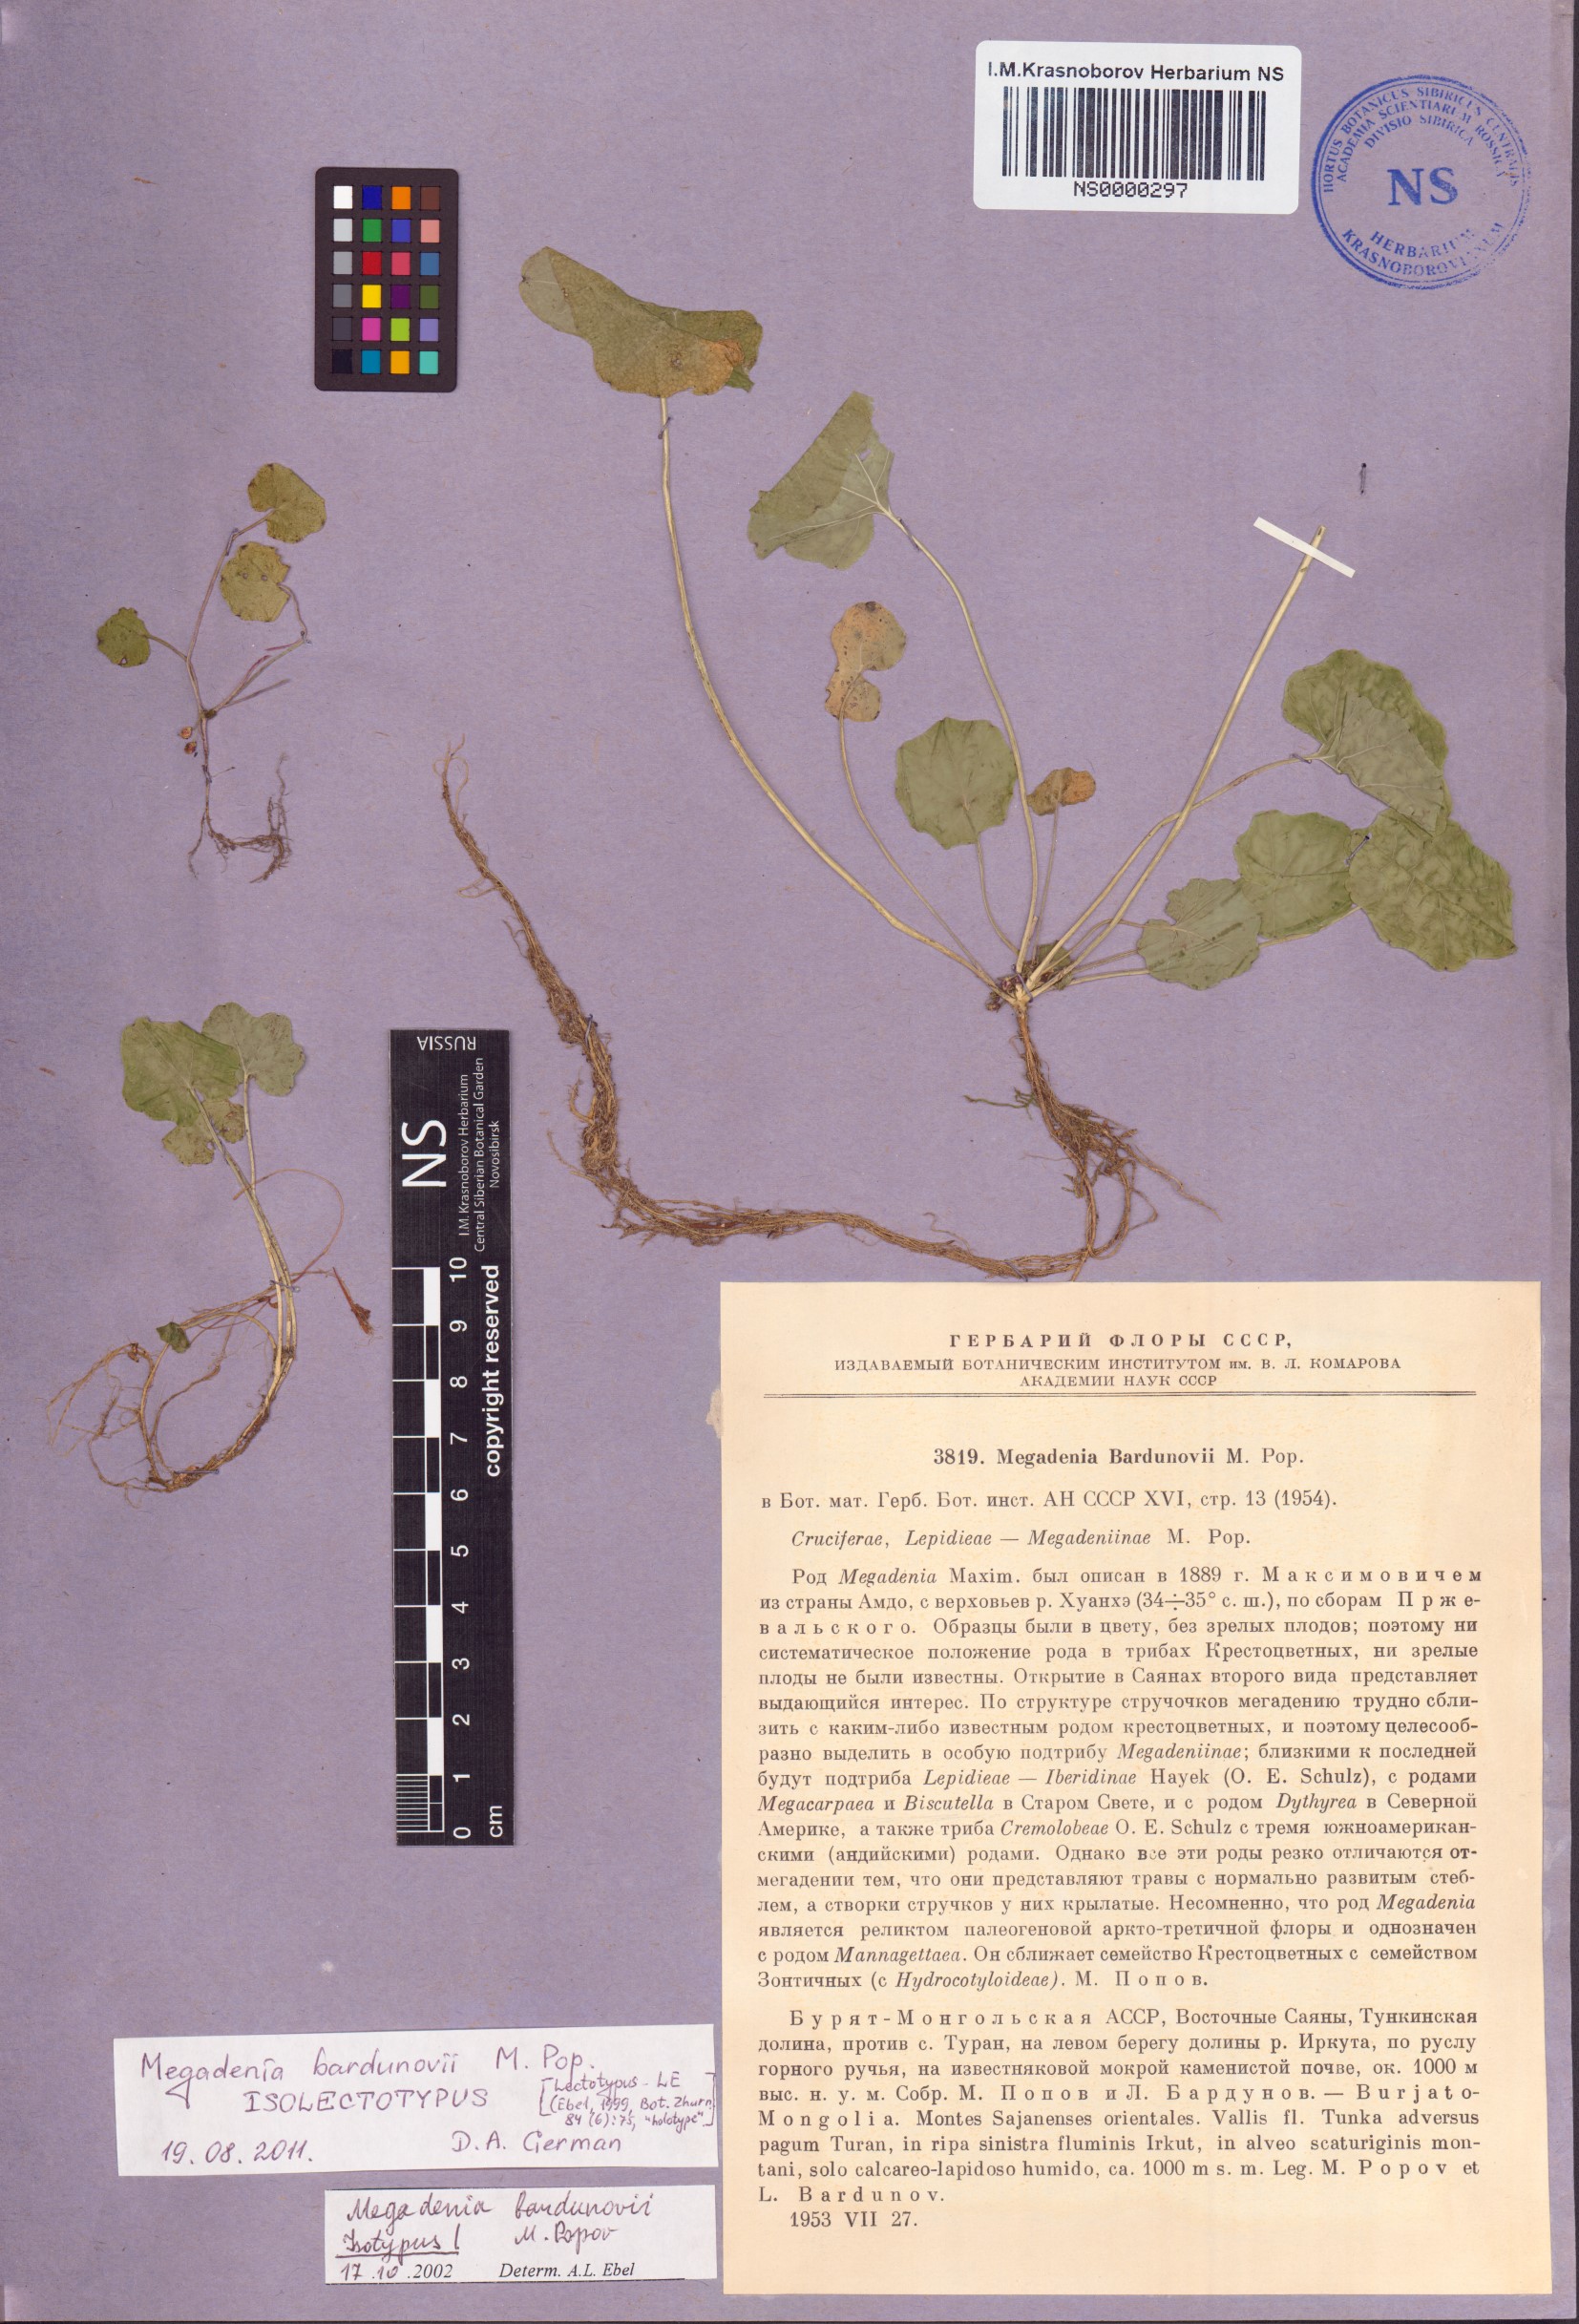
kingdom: Plantae
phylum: Tracheophyta
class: Magnoliopsida
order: Brassicales
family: Brassicaceae
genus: Megadenia
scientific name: Megadenia pygmaea
